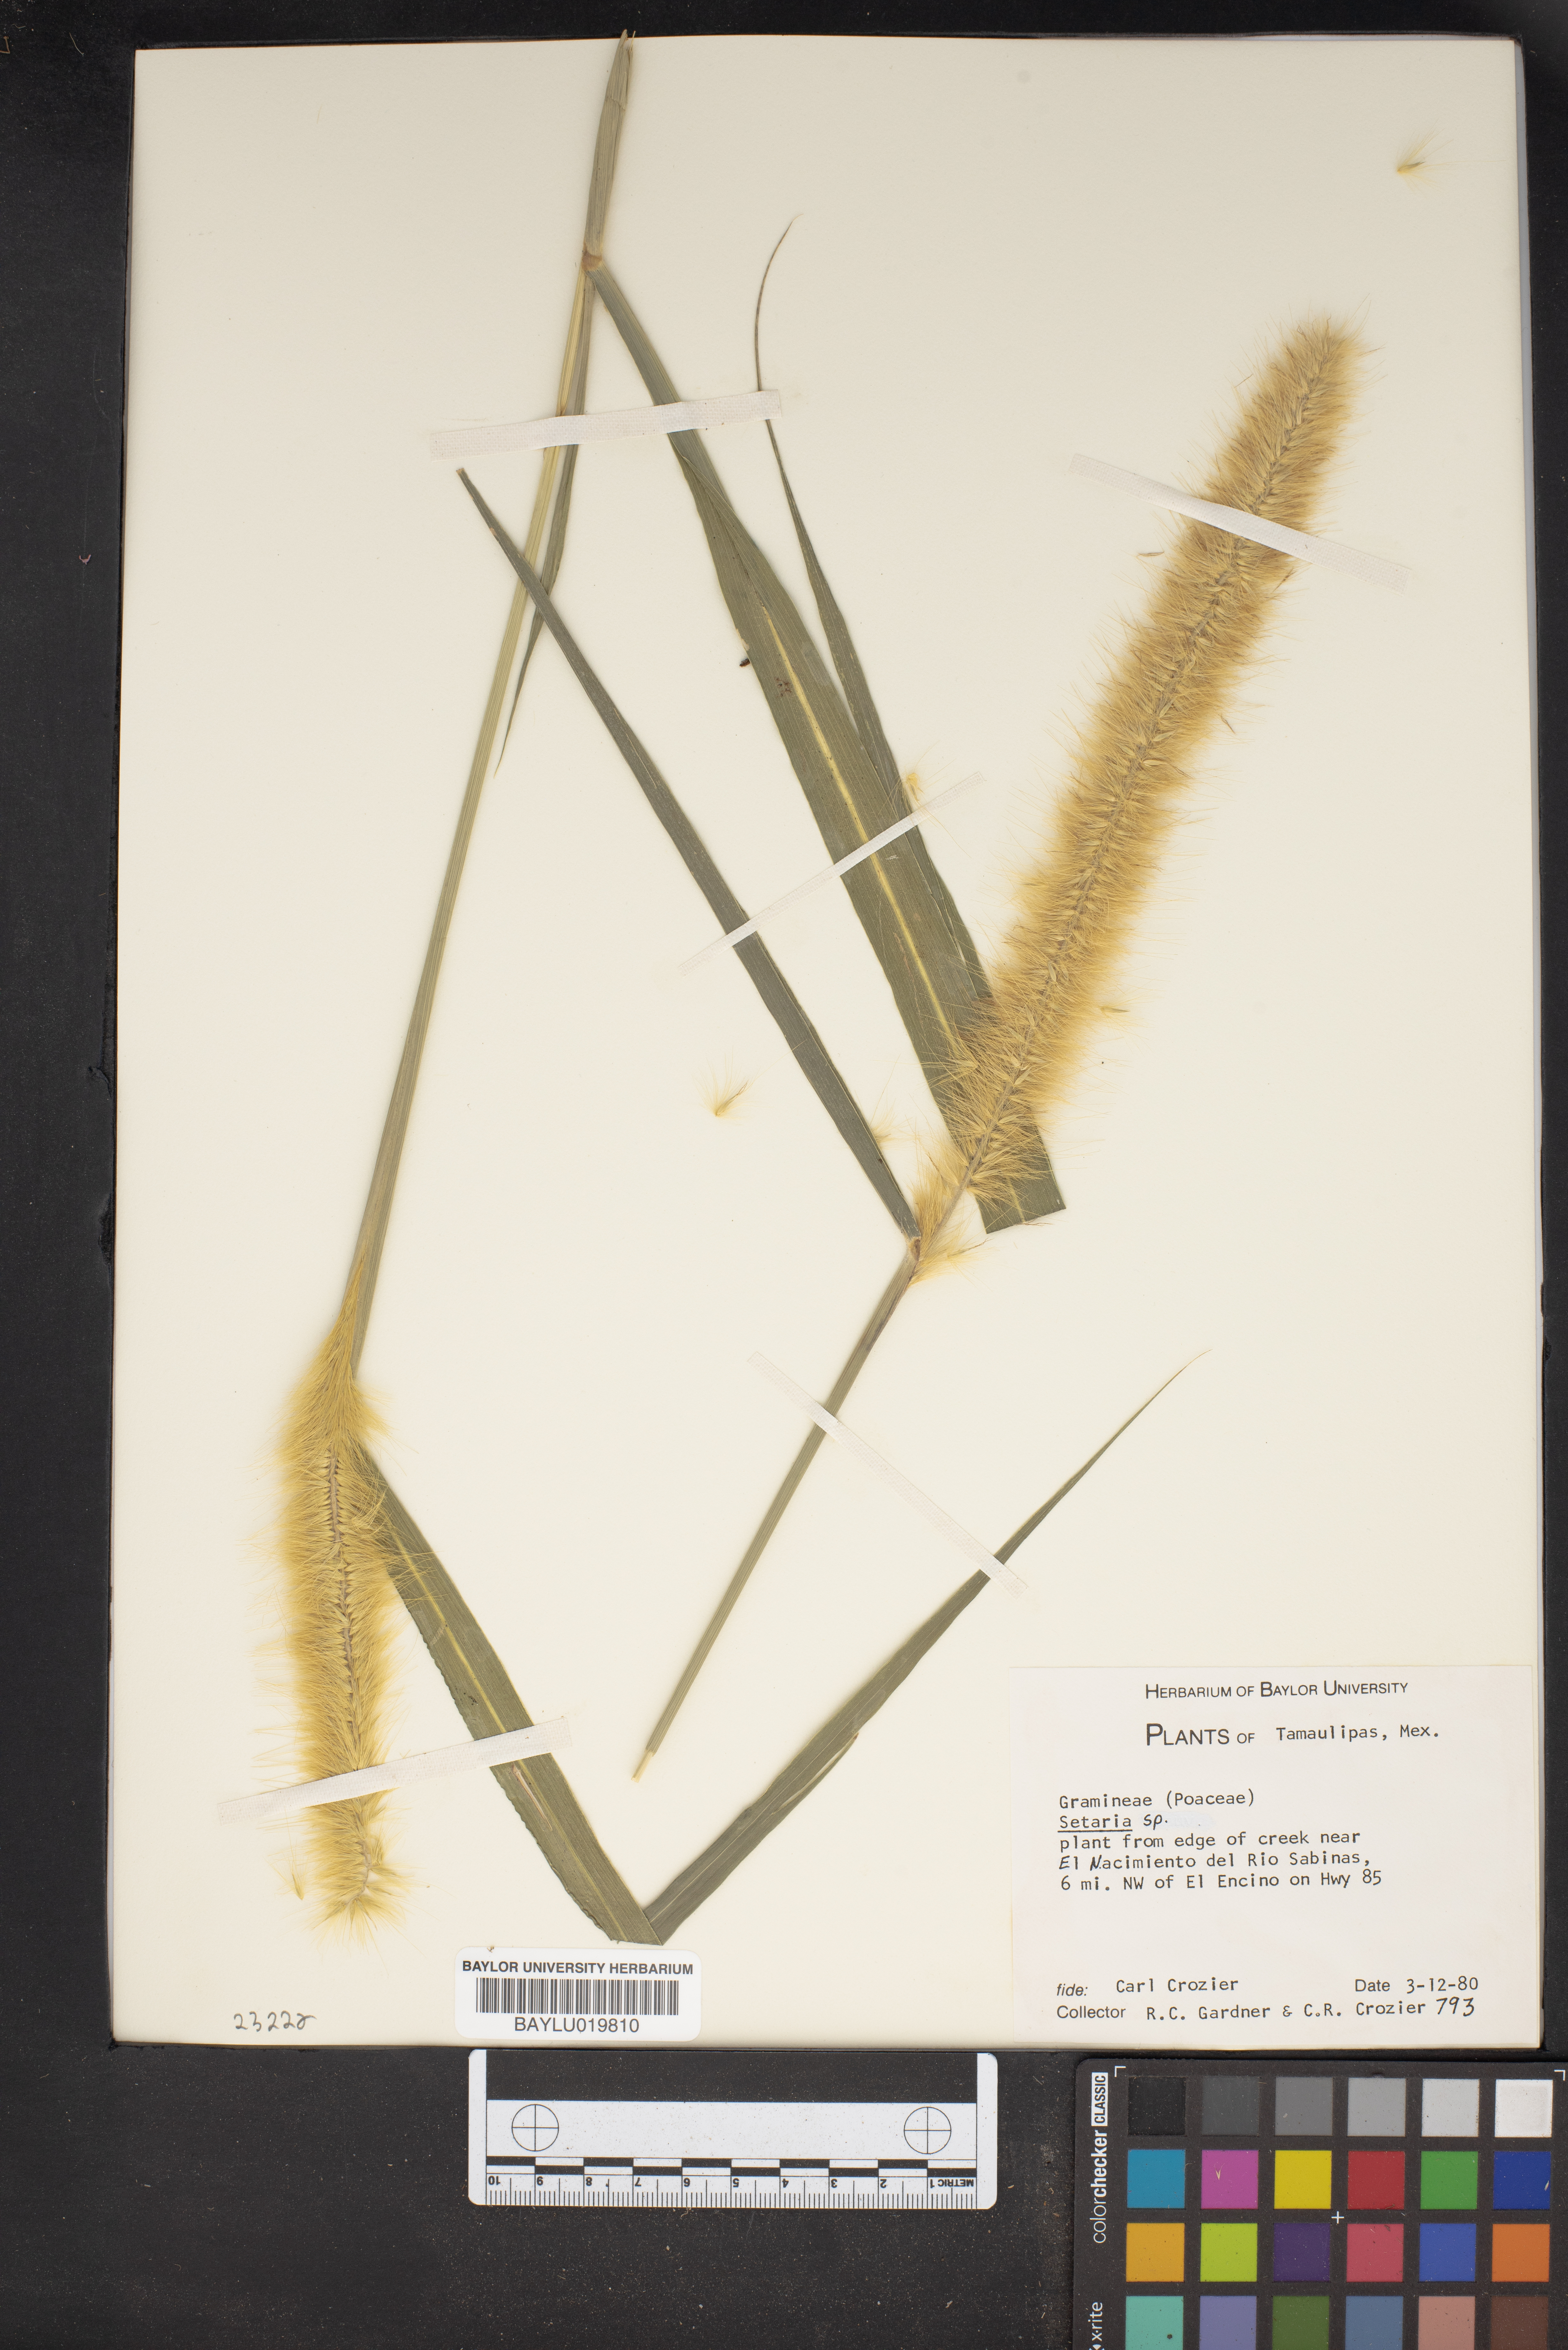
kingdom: Plantae
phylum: Tracheophyta
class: Liliopsida
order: Poales
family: Poaceae
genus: Setaria
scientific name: Setaria
